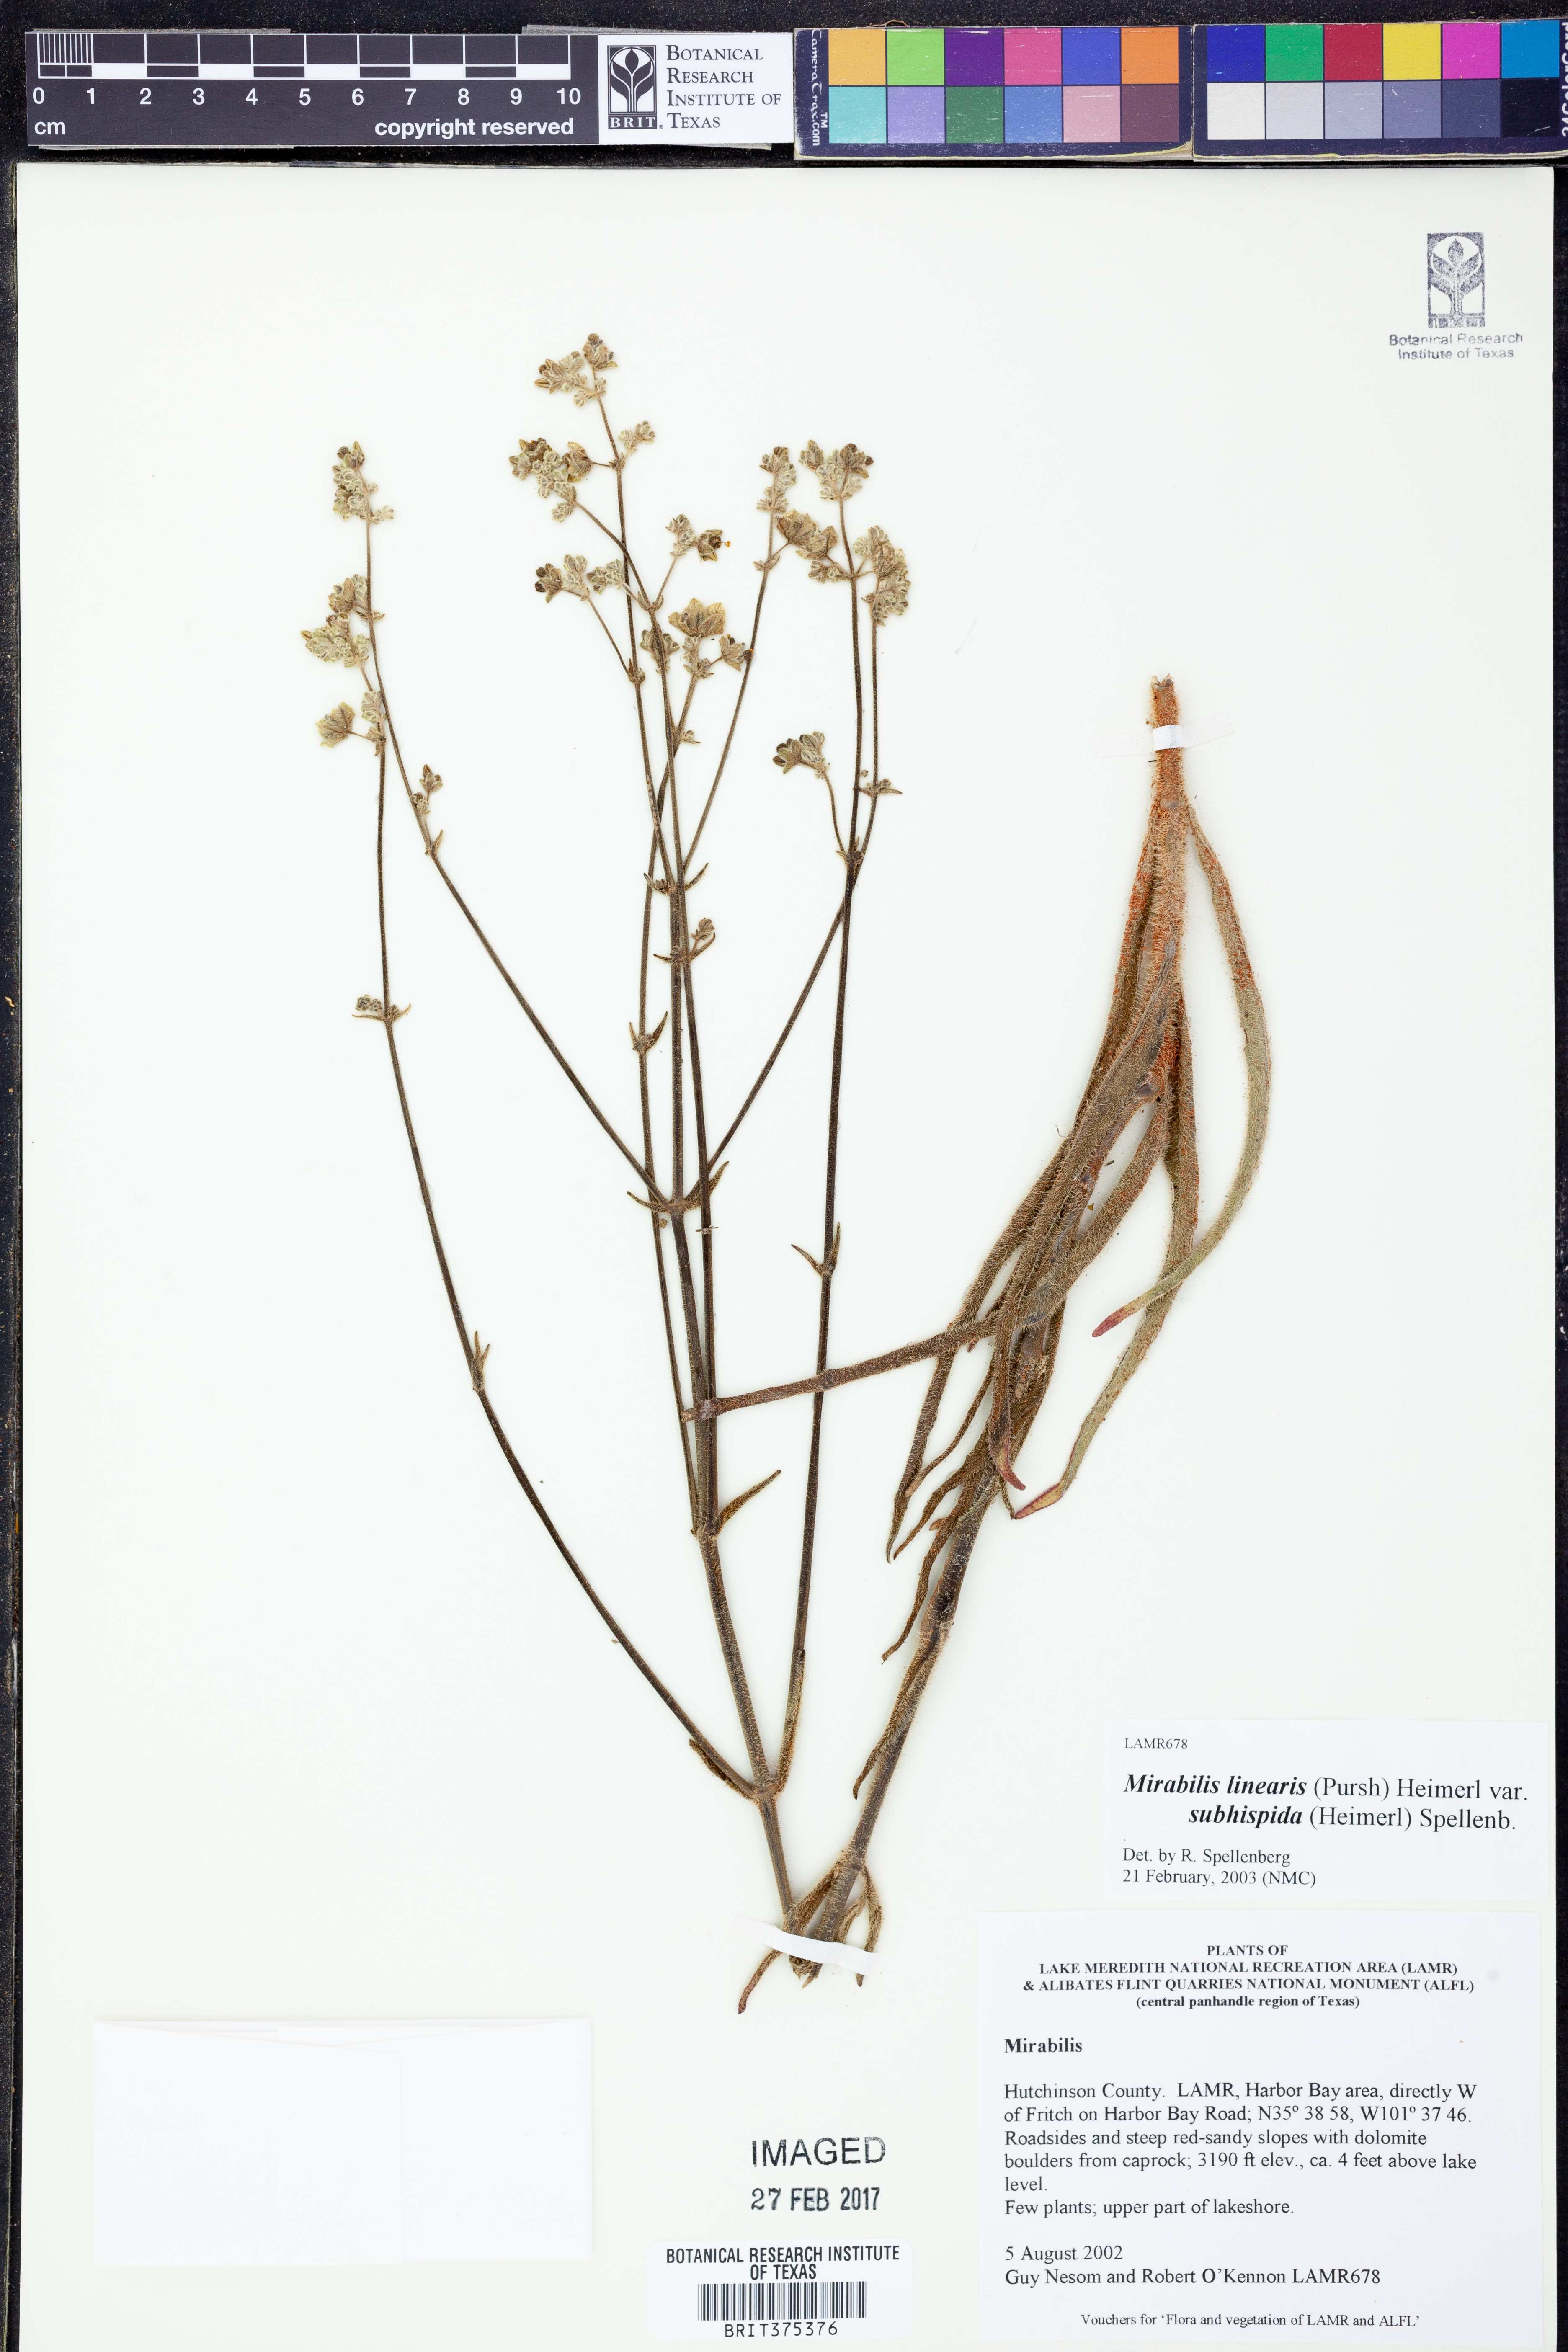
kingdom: Plantae
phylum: Tracheophyta
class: Magnoliopsida
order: Caryophyllales
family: Nyctaginaceae
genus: Mirabilis
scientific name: Mirabilis linearis
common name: Linear-leaved four-o'clock
